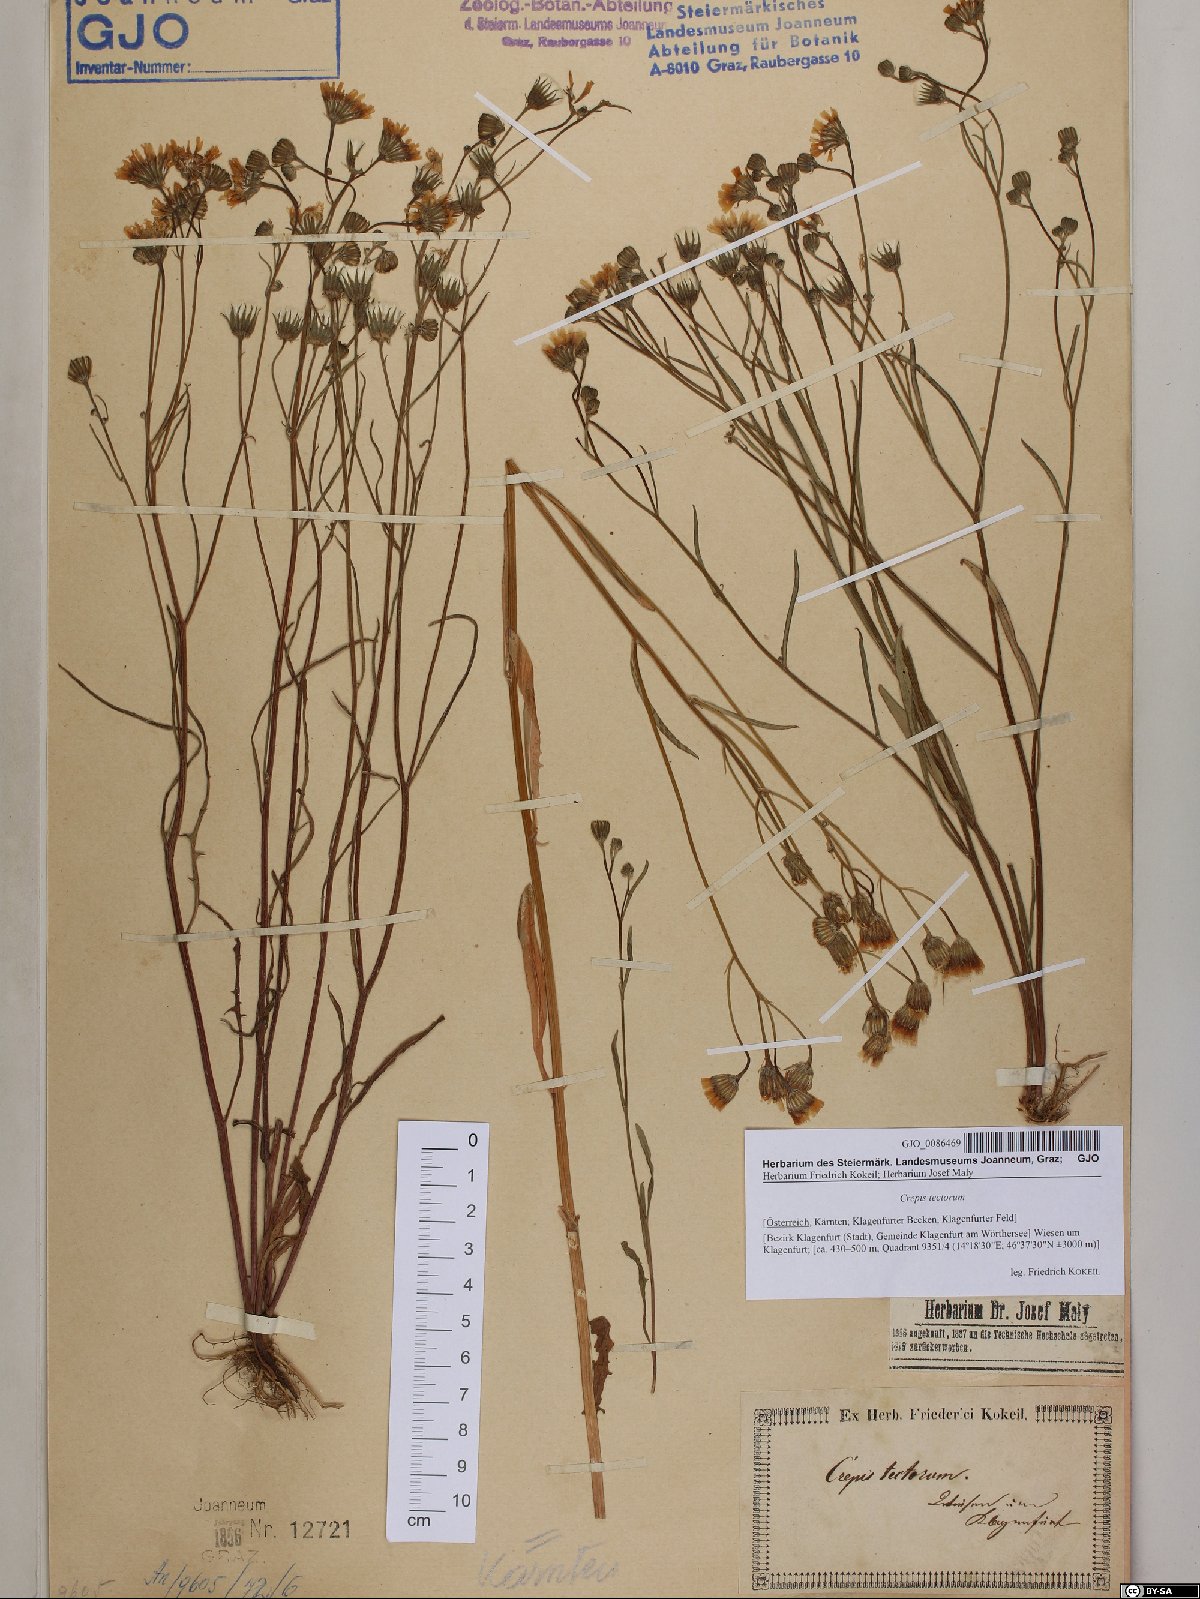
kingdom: Plantae
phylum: Tracheophyta
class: Magnoliopsida
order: Asterales
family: Asteraceae
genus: Crepis
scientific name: Crepis tectorum
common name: Narrow-leaved hawk's-beard
